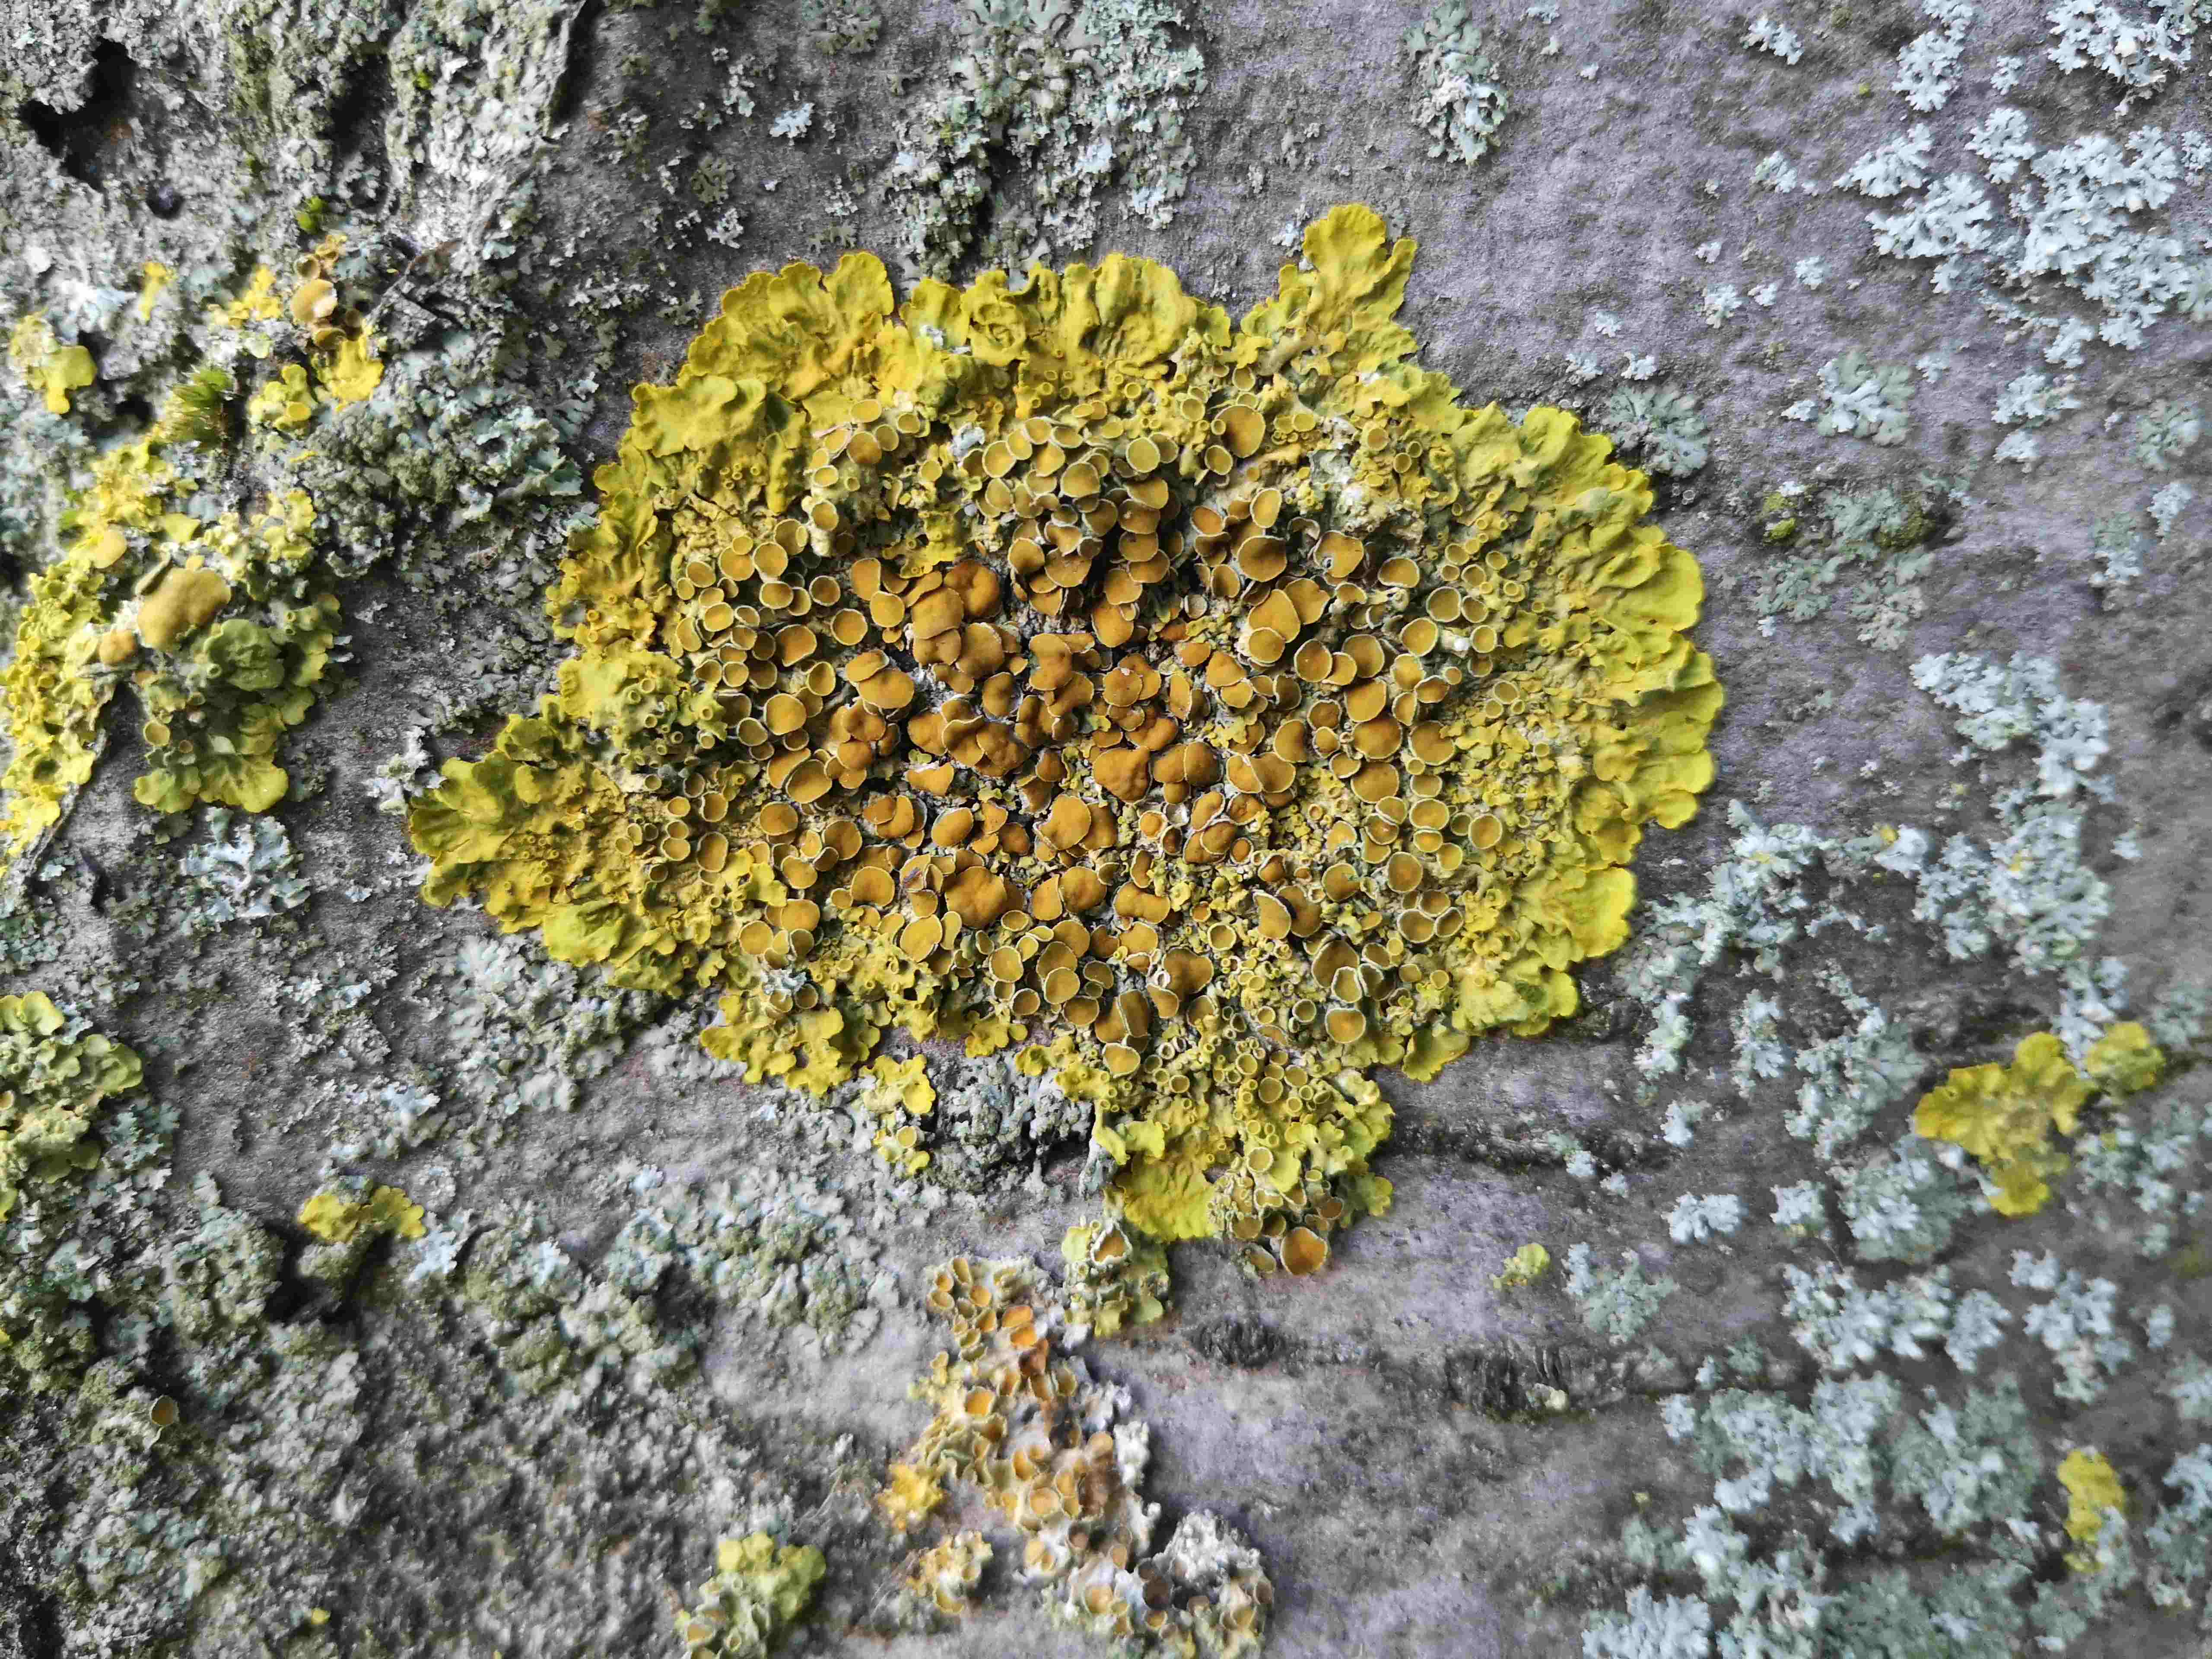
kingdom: Fungi
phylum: Ascomycota
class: Lecanoromycetes
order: Teloschistales
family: Teloschistaceae
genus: Xanthoria
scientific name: Xanthoria parietina
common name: almindelig væggelav
